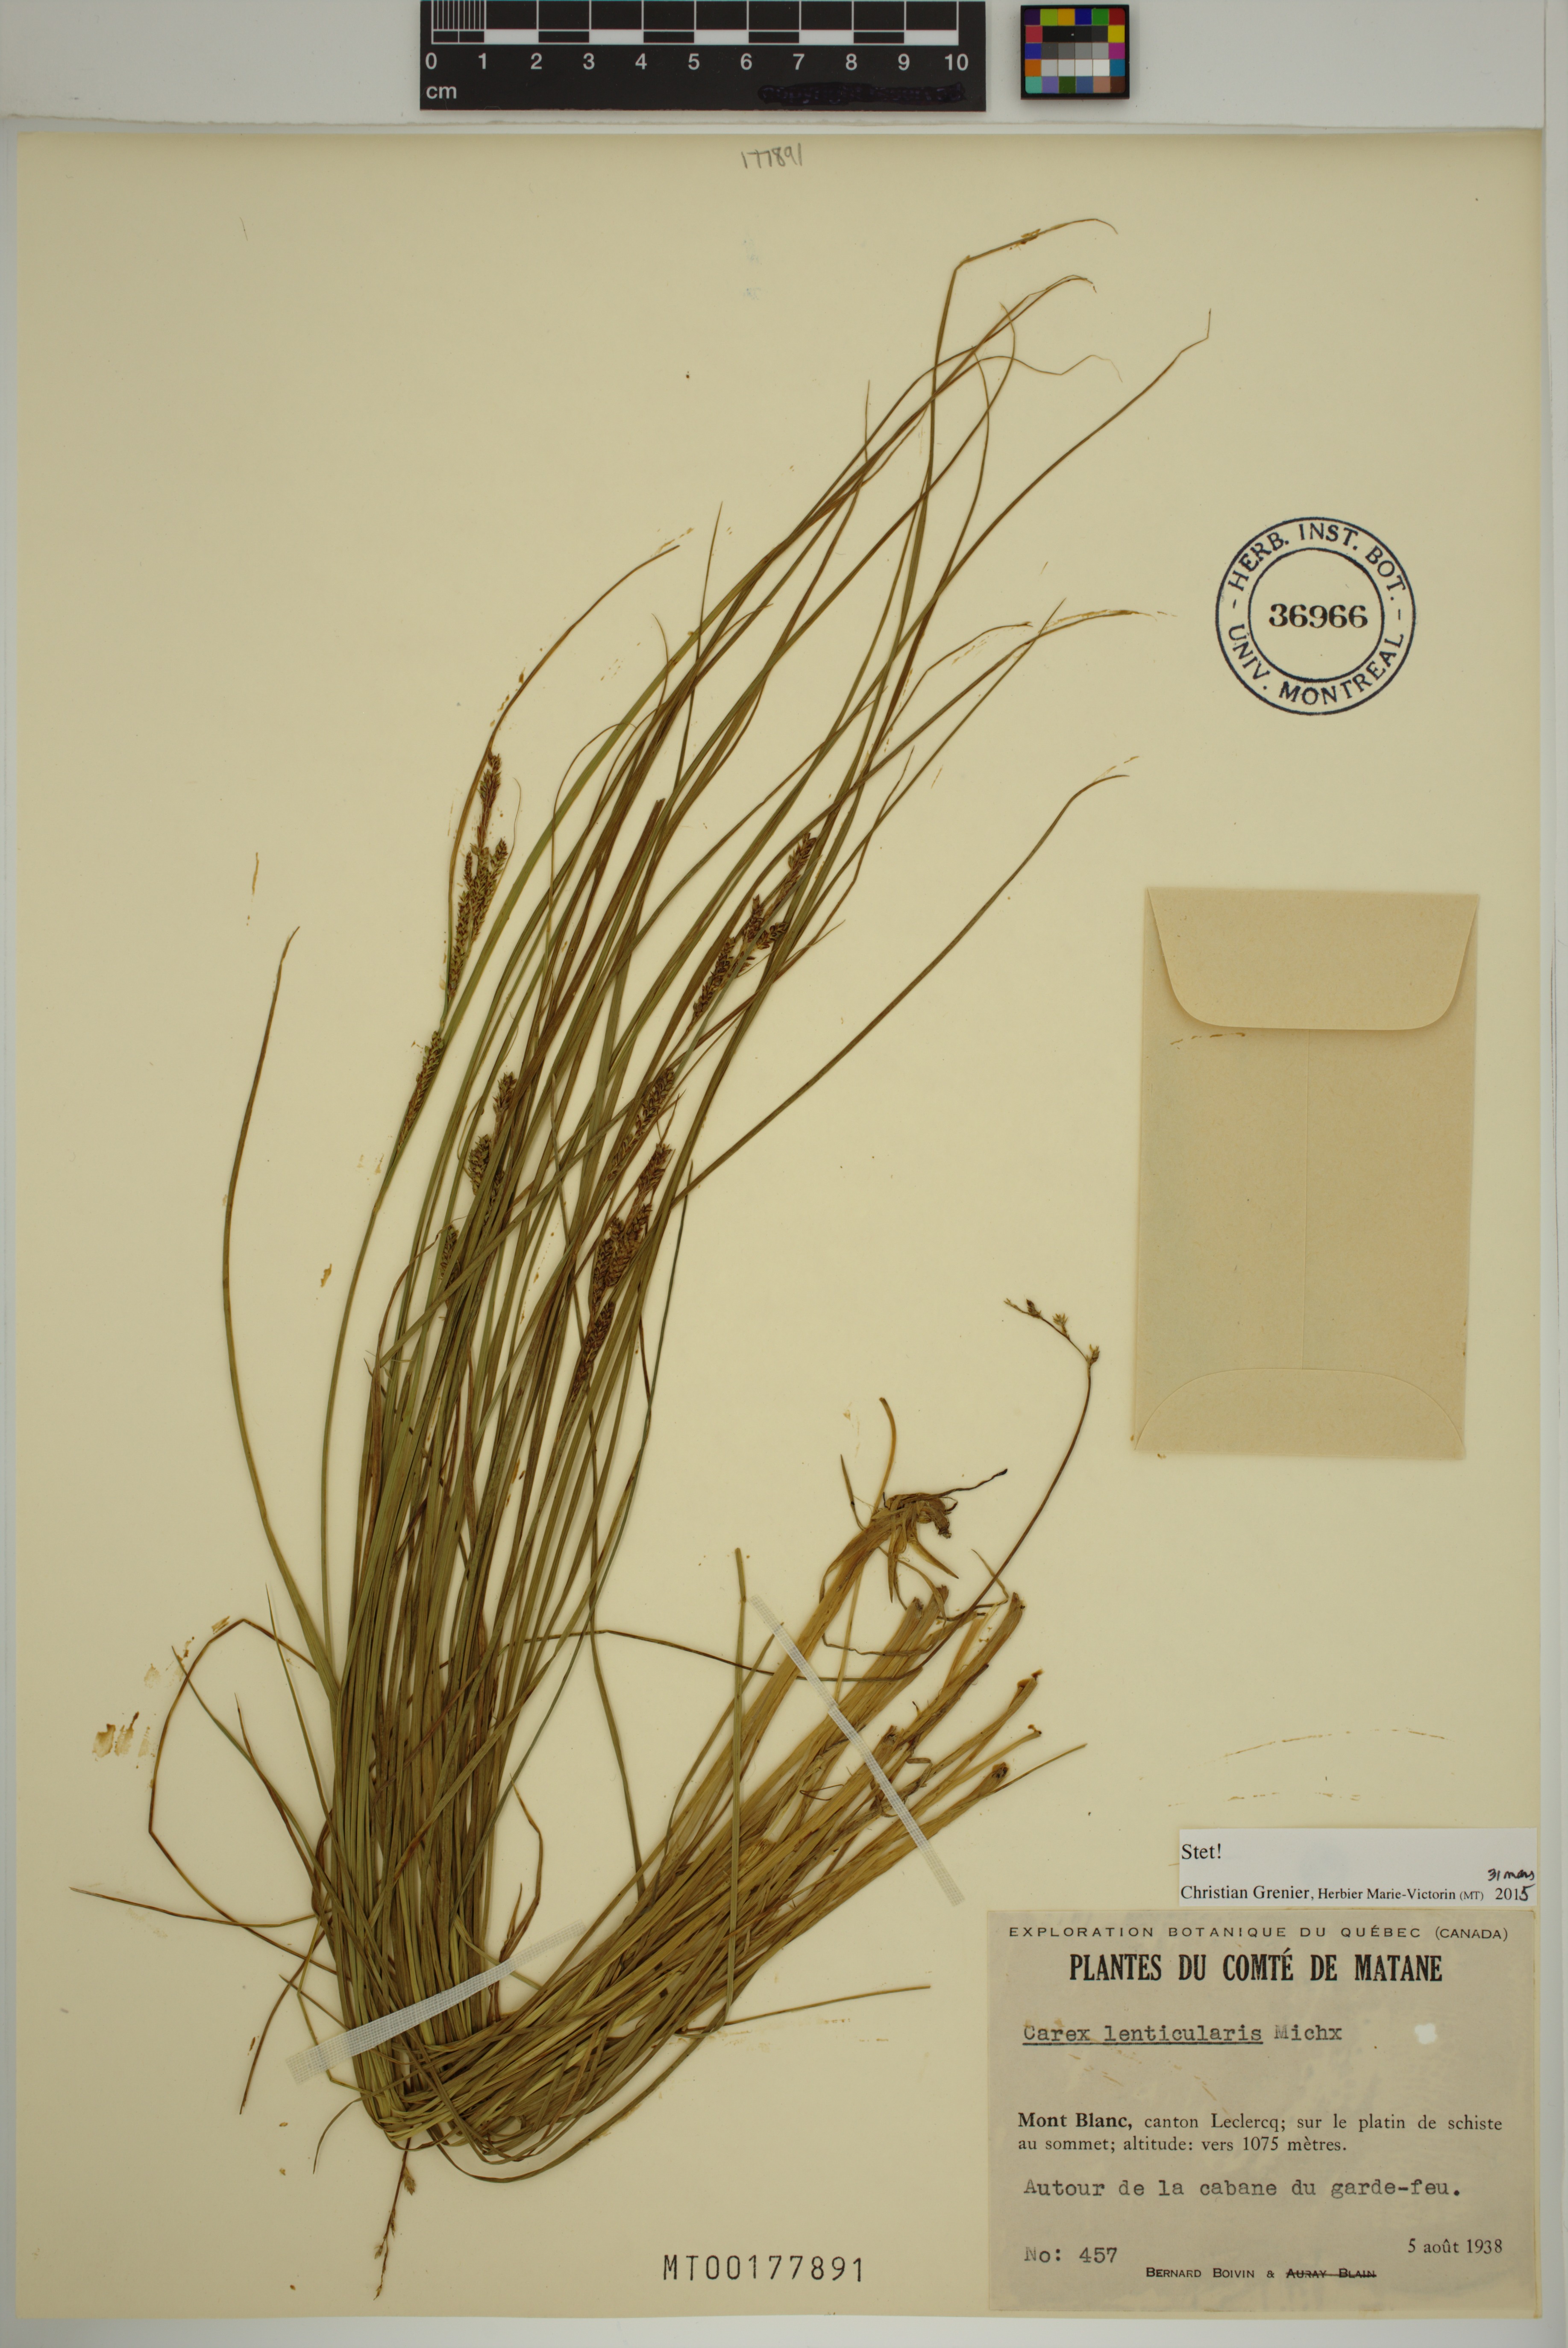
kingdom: Plantae
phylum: Tracheophyta
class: Liliopsida
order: Poales
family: Cyperaceae
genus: Carex
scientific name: Carex lenticularis
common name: Lakeshore sedge
